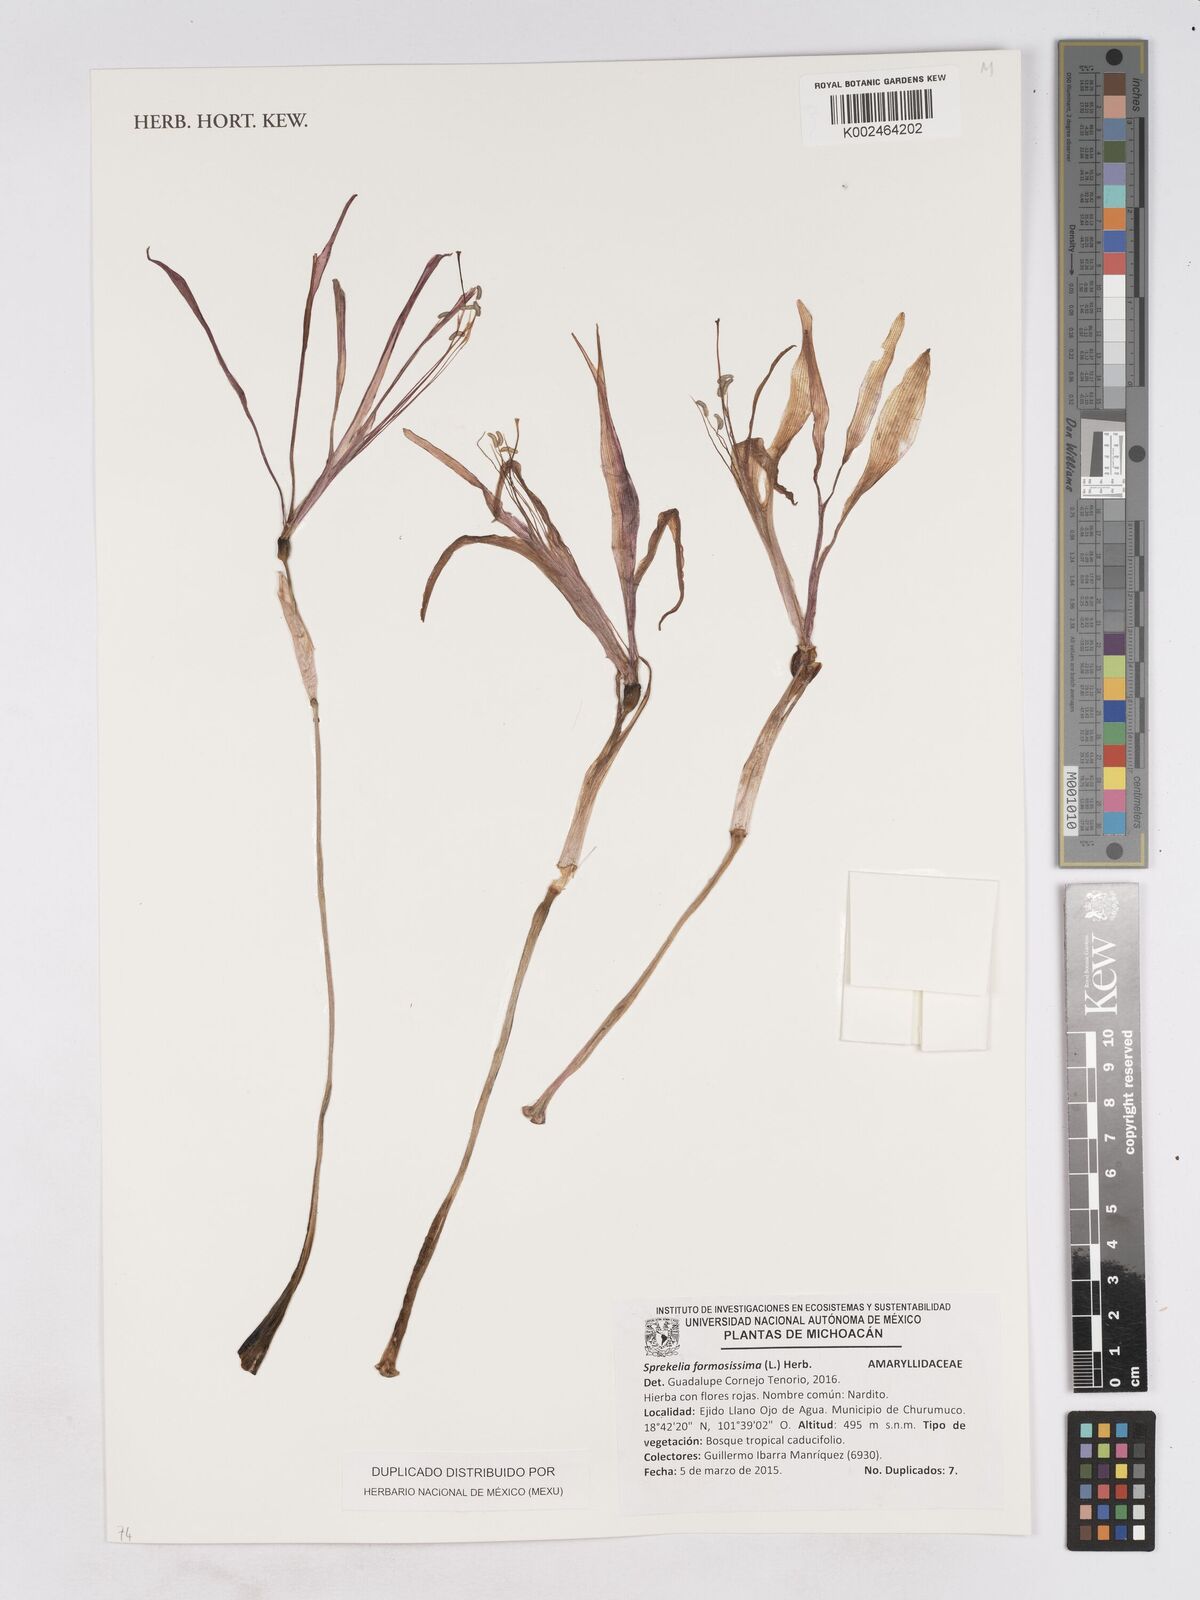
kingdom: Plantae
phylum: Tracheophyta
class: Liliopsida
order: Asparagales
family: Amaryllidaceae
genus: Sprekelia
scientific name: Sprekelia formosissima
